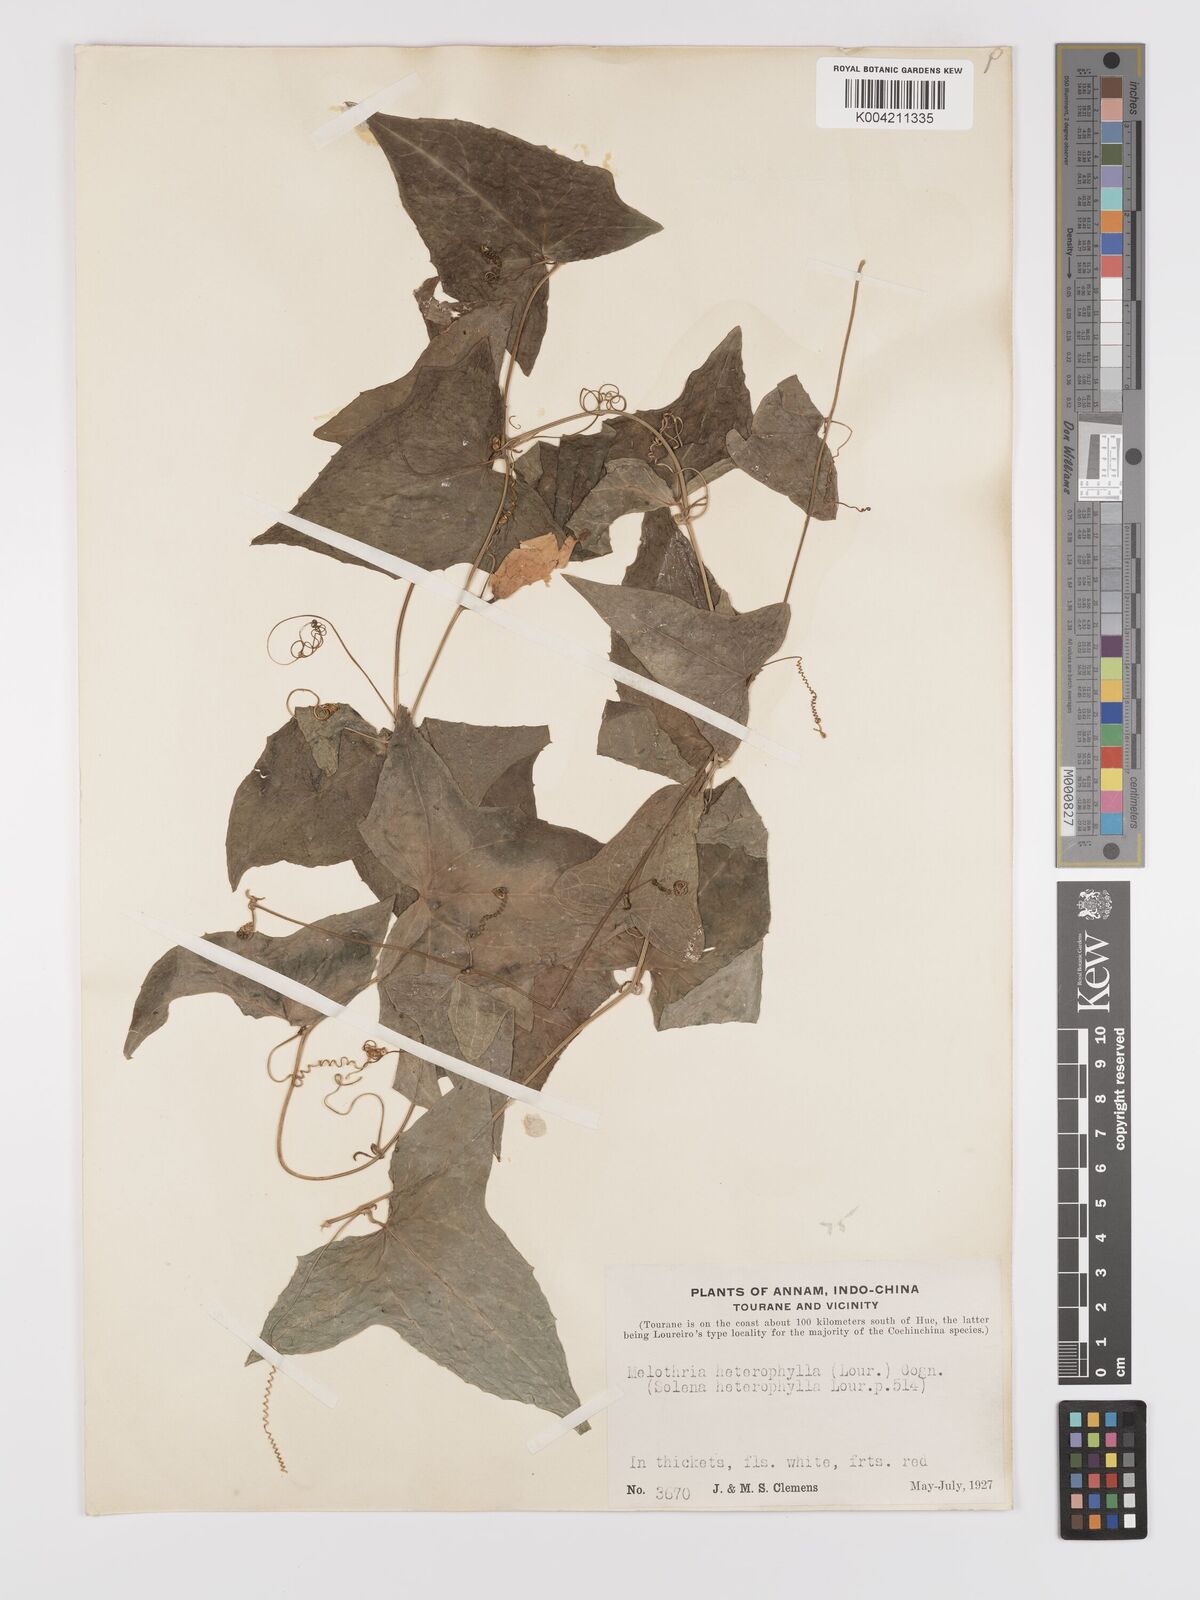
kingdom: Plantae
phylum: Tracheophyta
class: Magnoliopsida
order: Cucurbitales
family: Cucurbitaceae
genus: Solena
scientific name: Solena heterophylla
